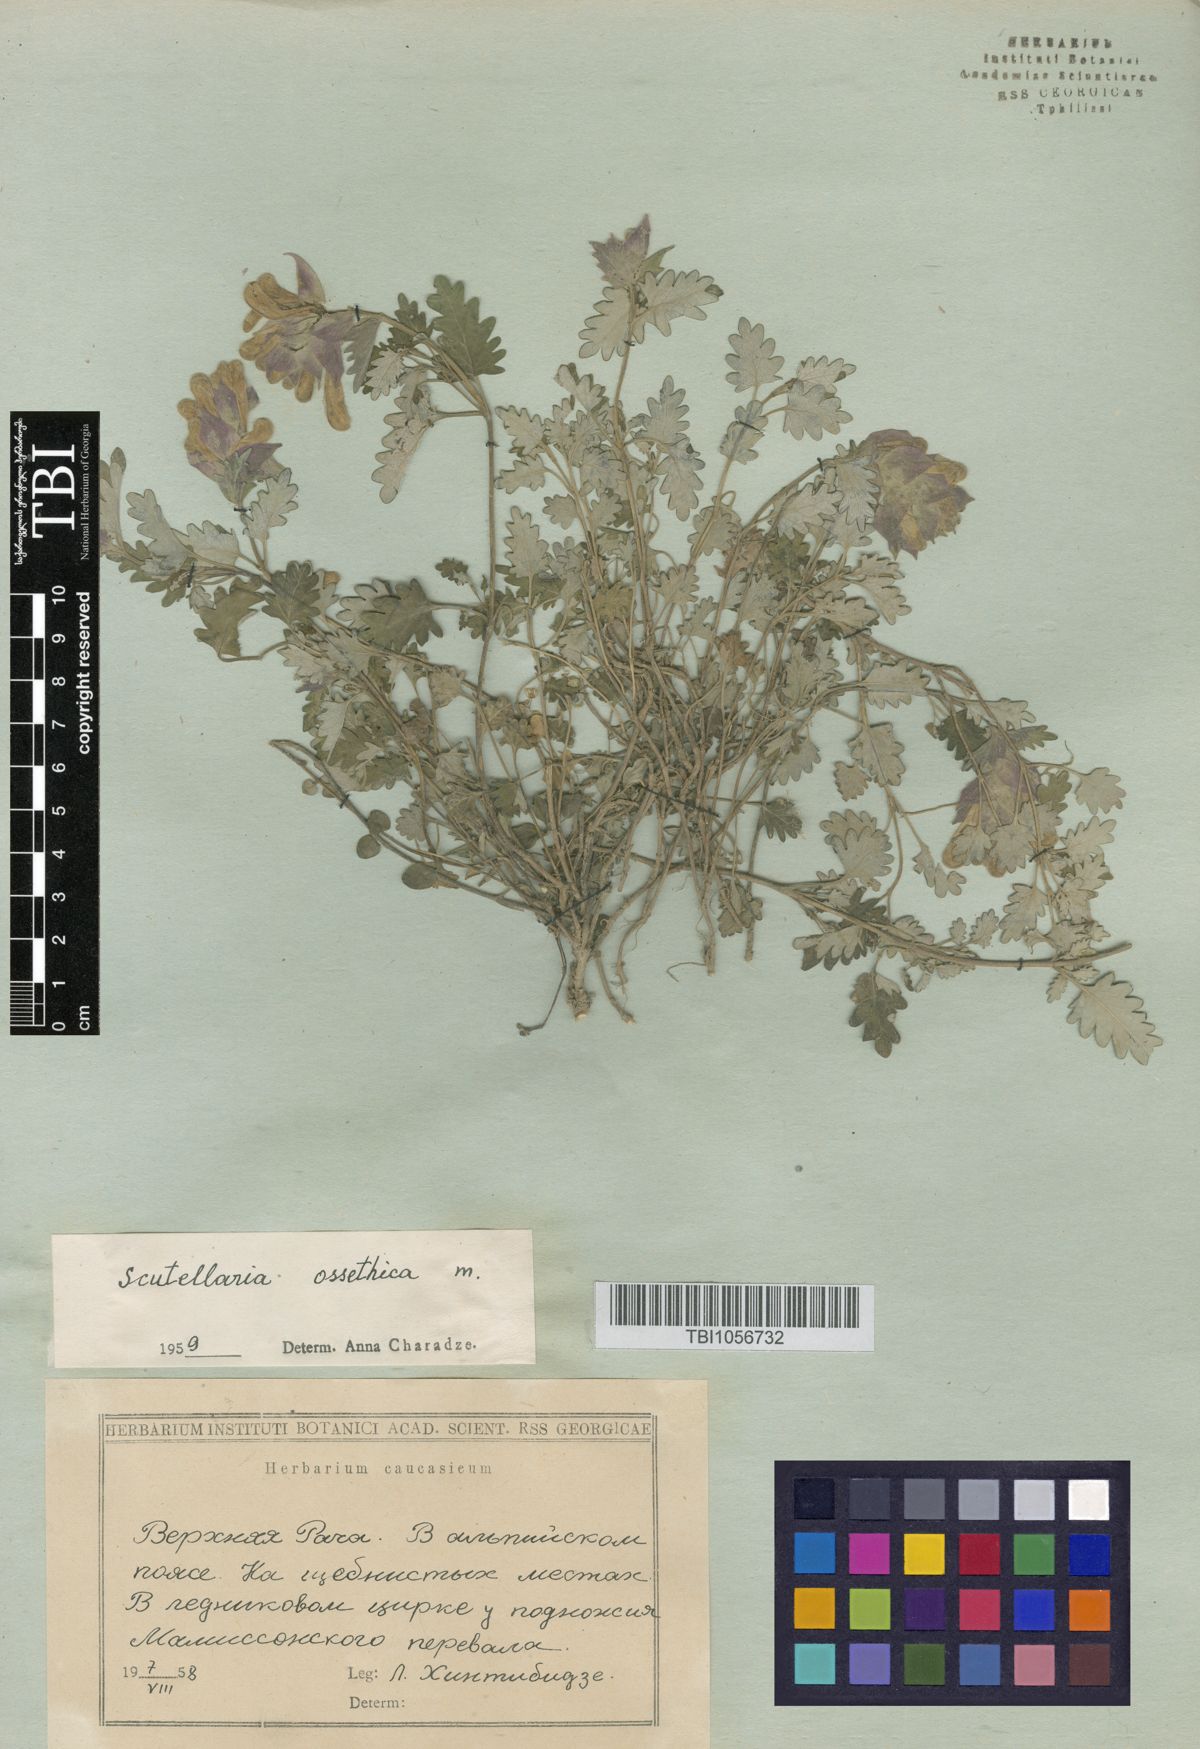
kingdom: Plantae
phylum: Tracheophyta
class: Magnoliopsida
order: Lamiales
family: Lamiaceae
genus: Scutellaria
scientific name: Scutellaria ossethica
